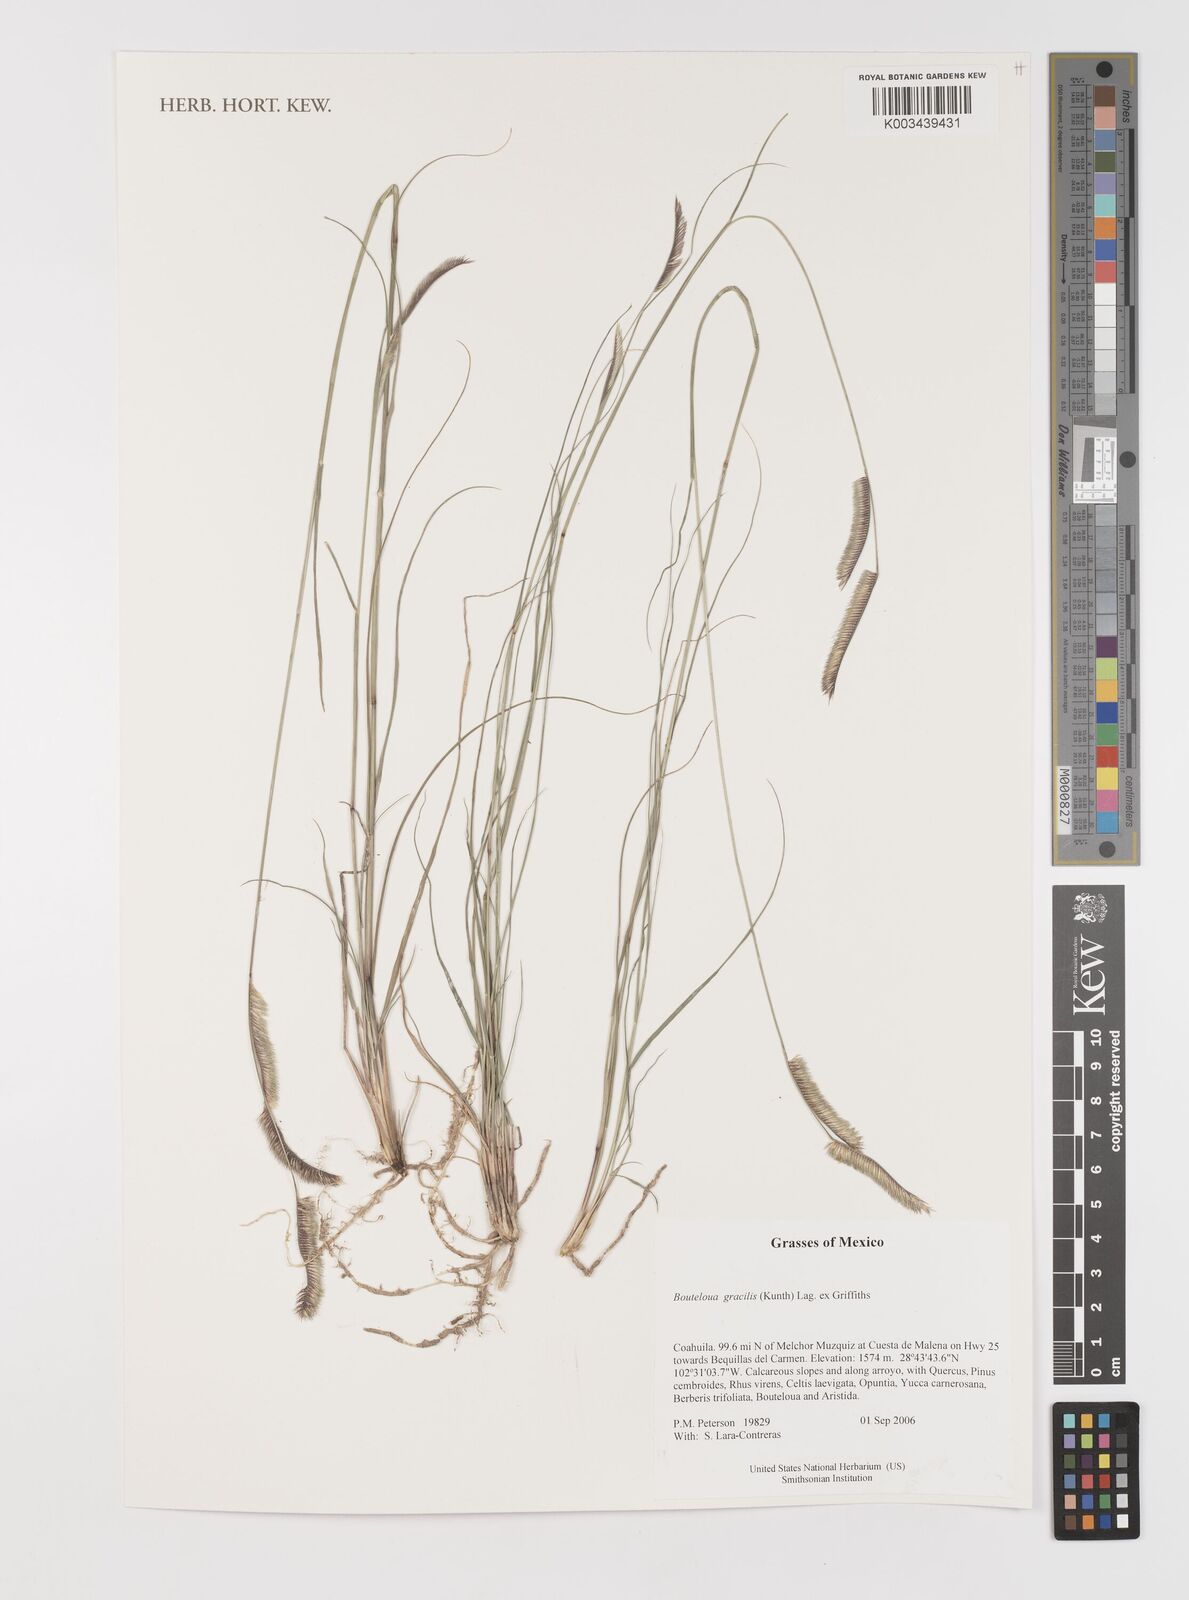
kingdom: Plantae
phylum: Tracheophyta
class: Liliopsida
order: Poales
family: Poaceae
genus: Bouteloua
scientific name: Bouteloua aristidoides
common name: Needle grama
